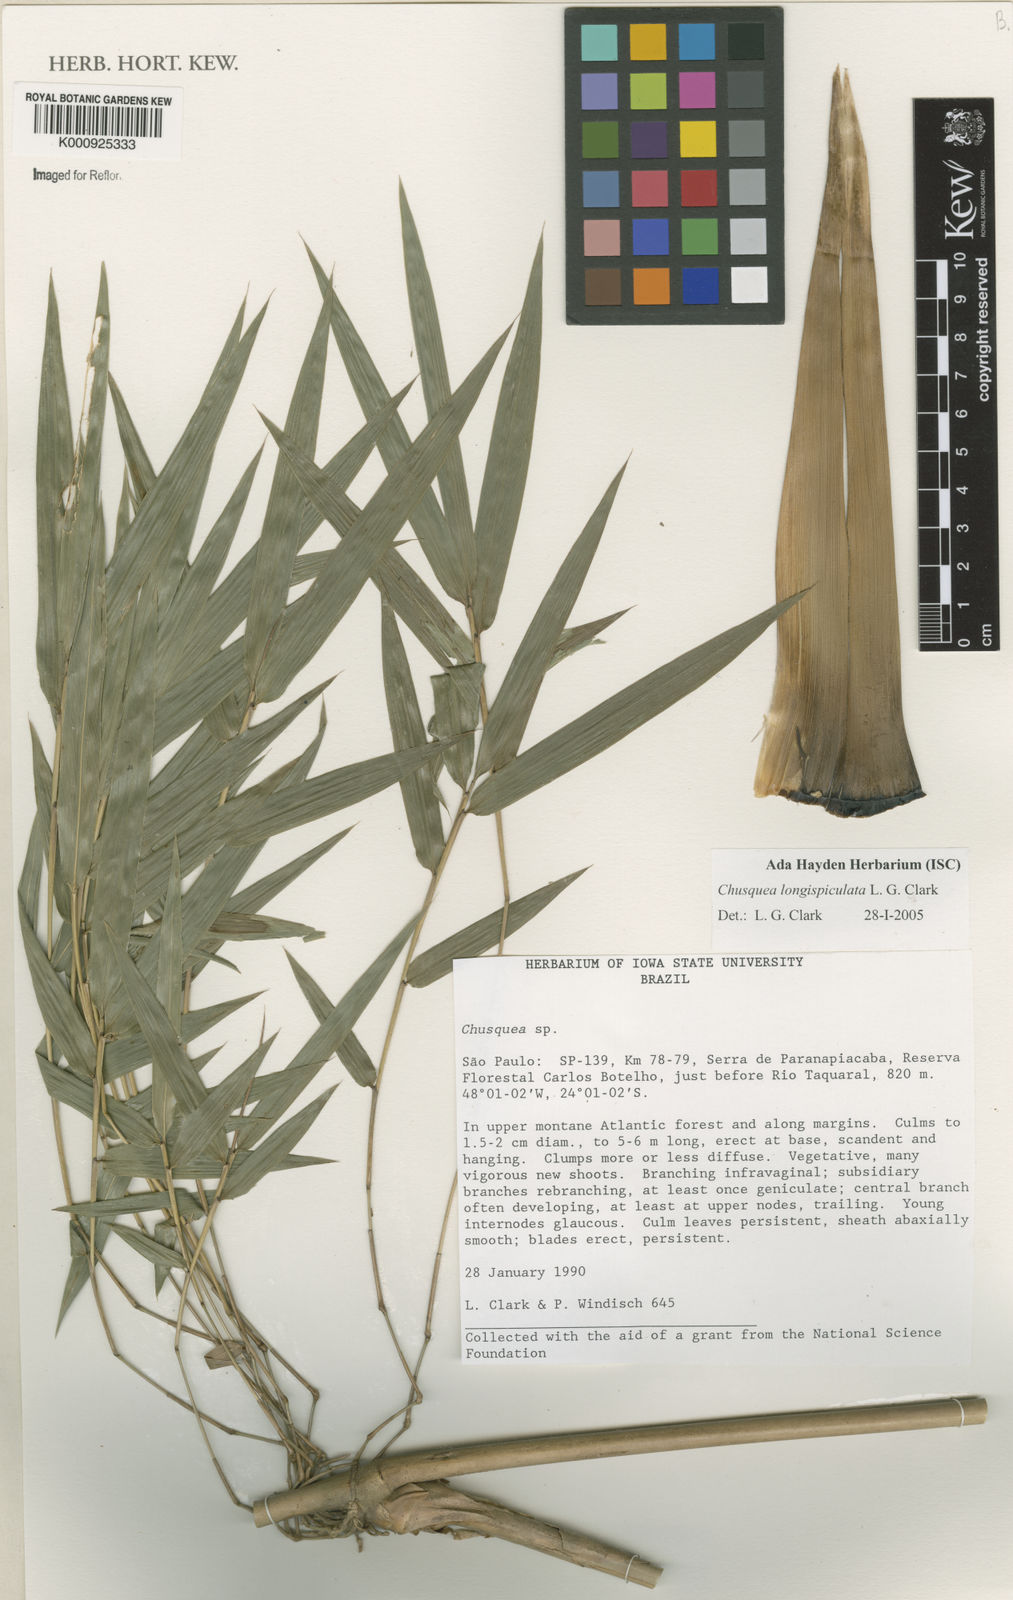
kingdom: Plantae
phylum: Tracheophyta
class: Liliopsida
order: Poales
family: Poaceae
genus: Chusquea
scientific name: Chusquea longispiculata
